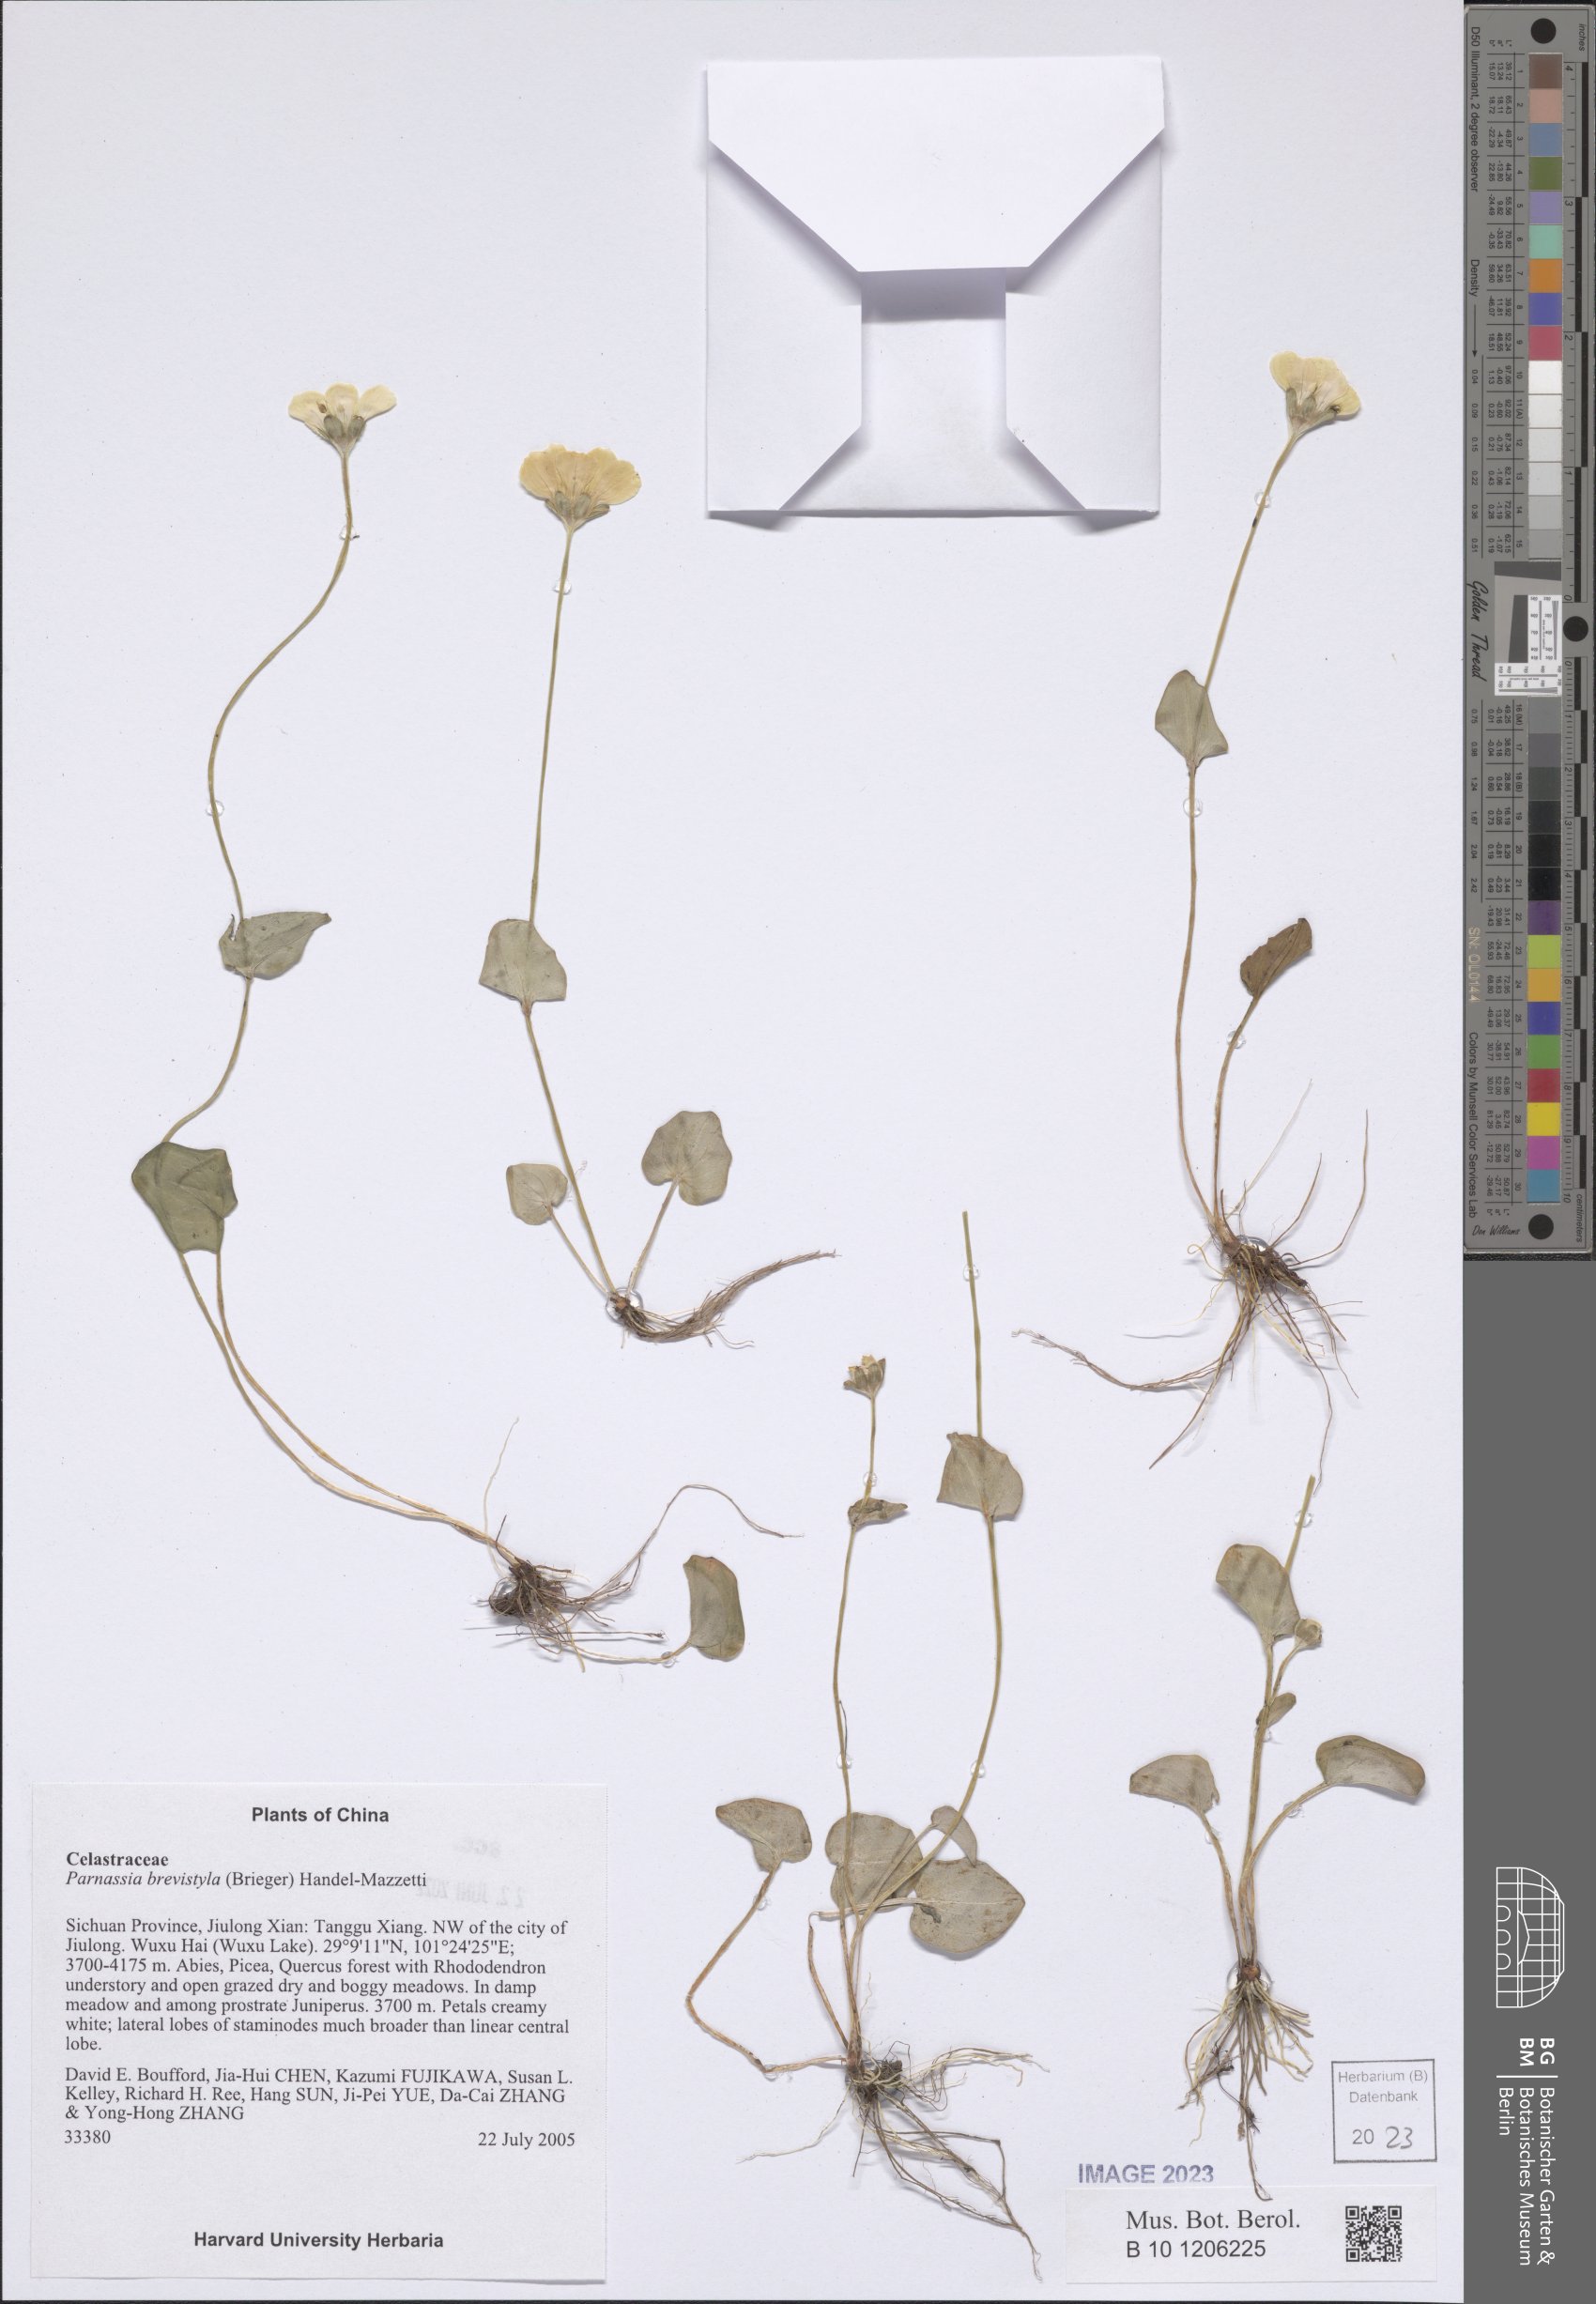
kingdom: Plantae
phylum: Tracheophyta
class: Magnoliopsida
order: Celastrales
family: Parnassiaceae
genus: Parnassia
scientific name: Parnassia delavayi
